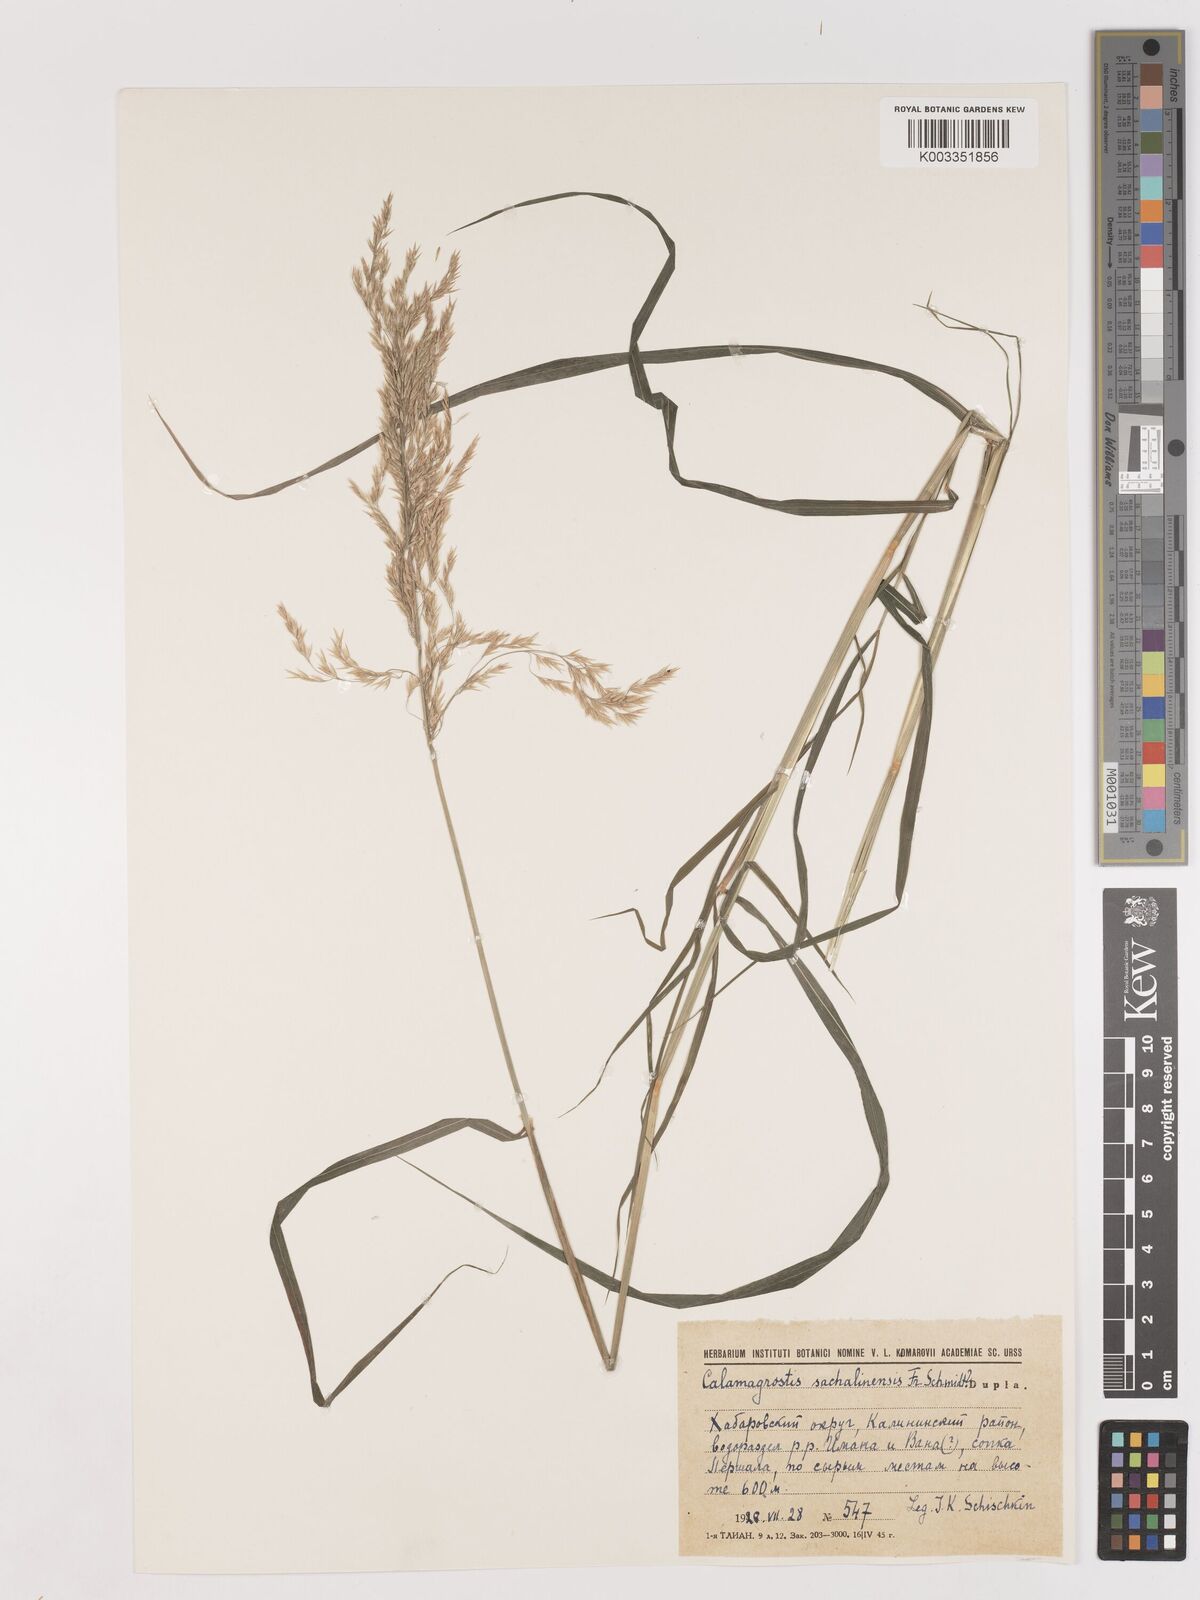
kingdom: Plantae
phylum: Tracheophyta
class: Liliopsida
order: Poales
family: Poaceae
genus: Calamagrostis
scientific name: Calamagrostis sachalinensis
